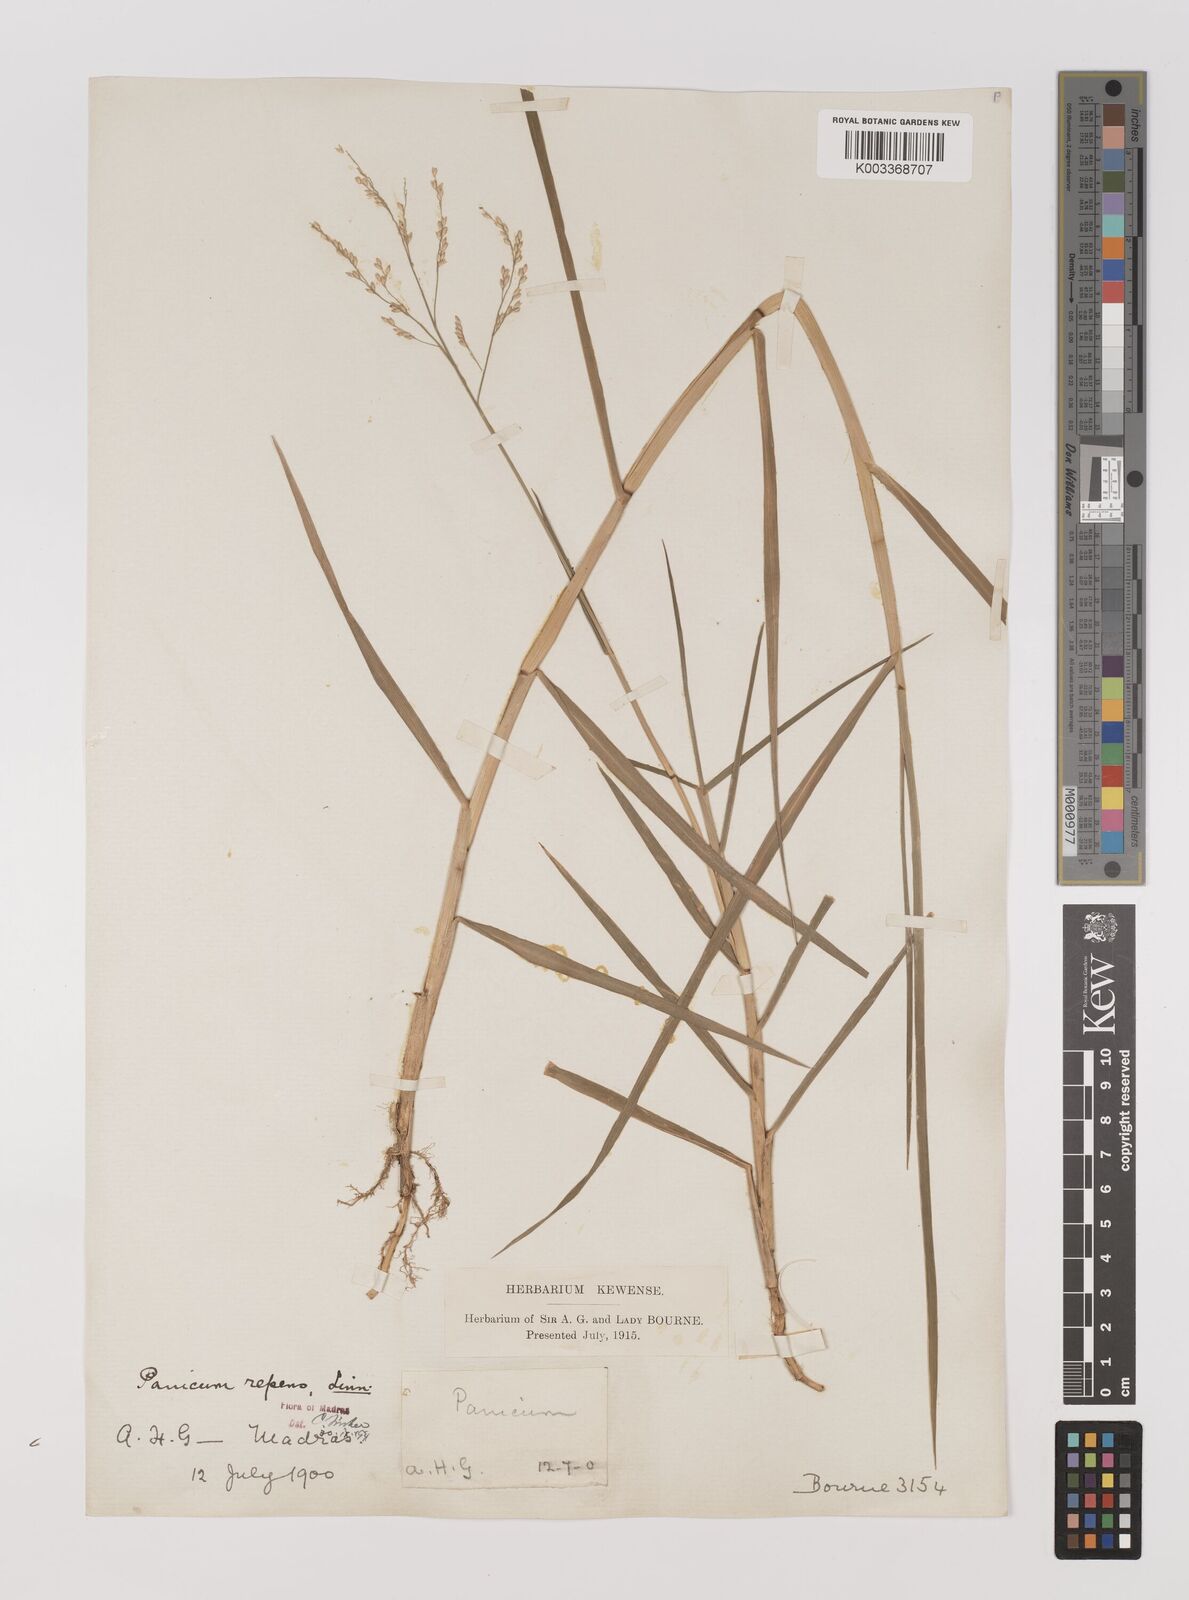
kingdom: Plantae
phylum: Tracheophyta
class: Liliopsida
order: Poales
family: Poaceae
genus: Panicum
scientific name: Panicum repens
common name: Torpedo grass
